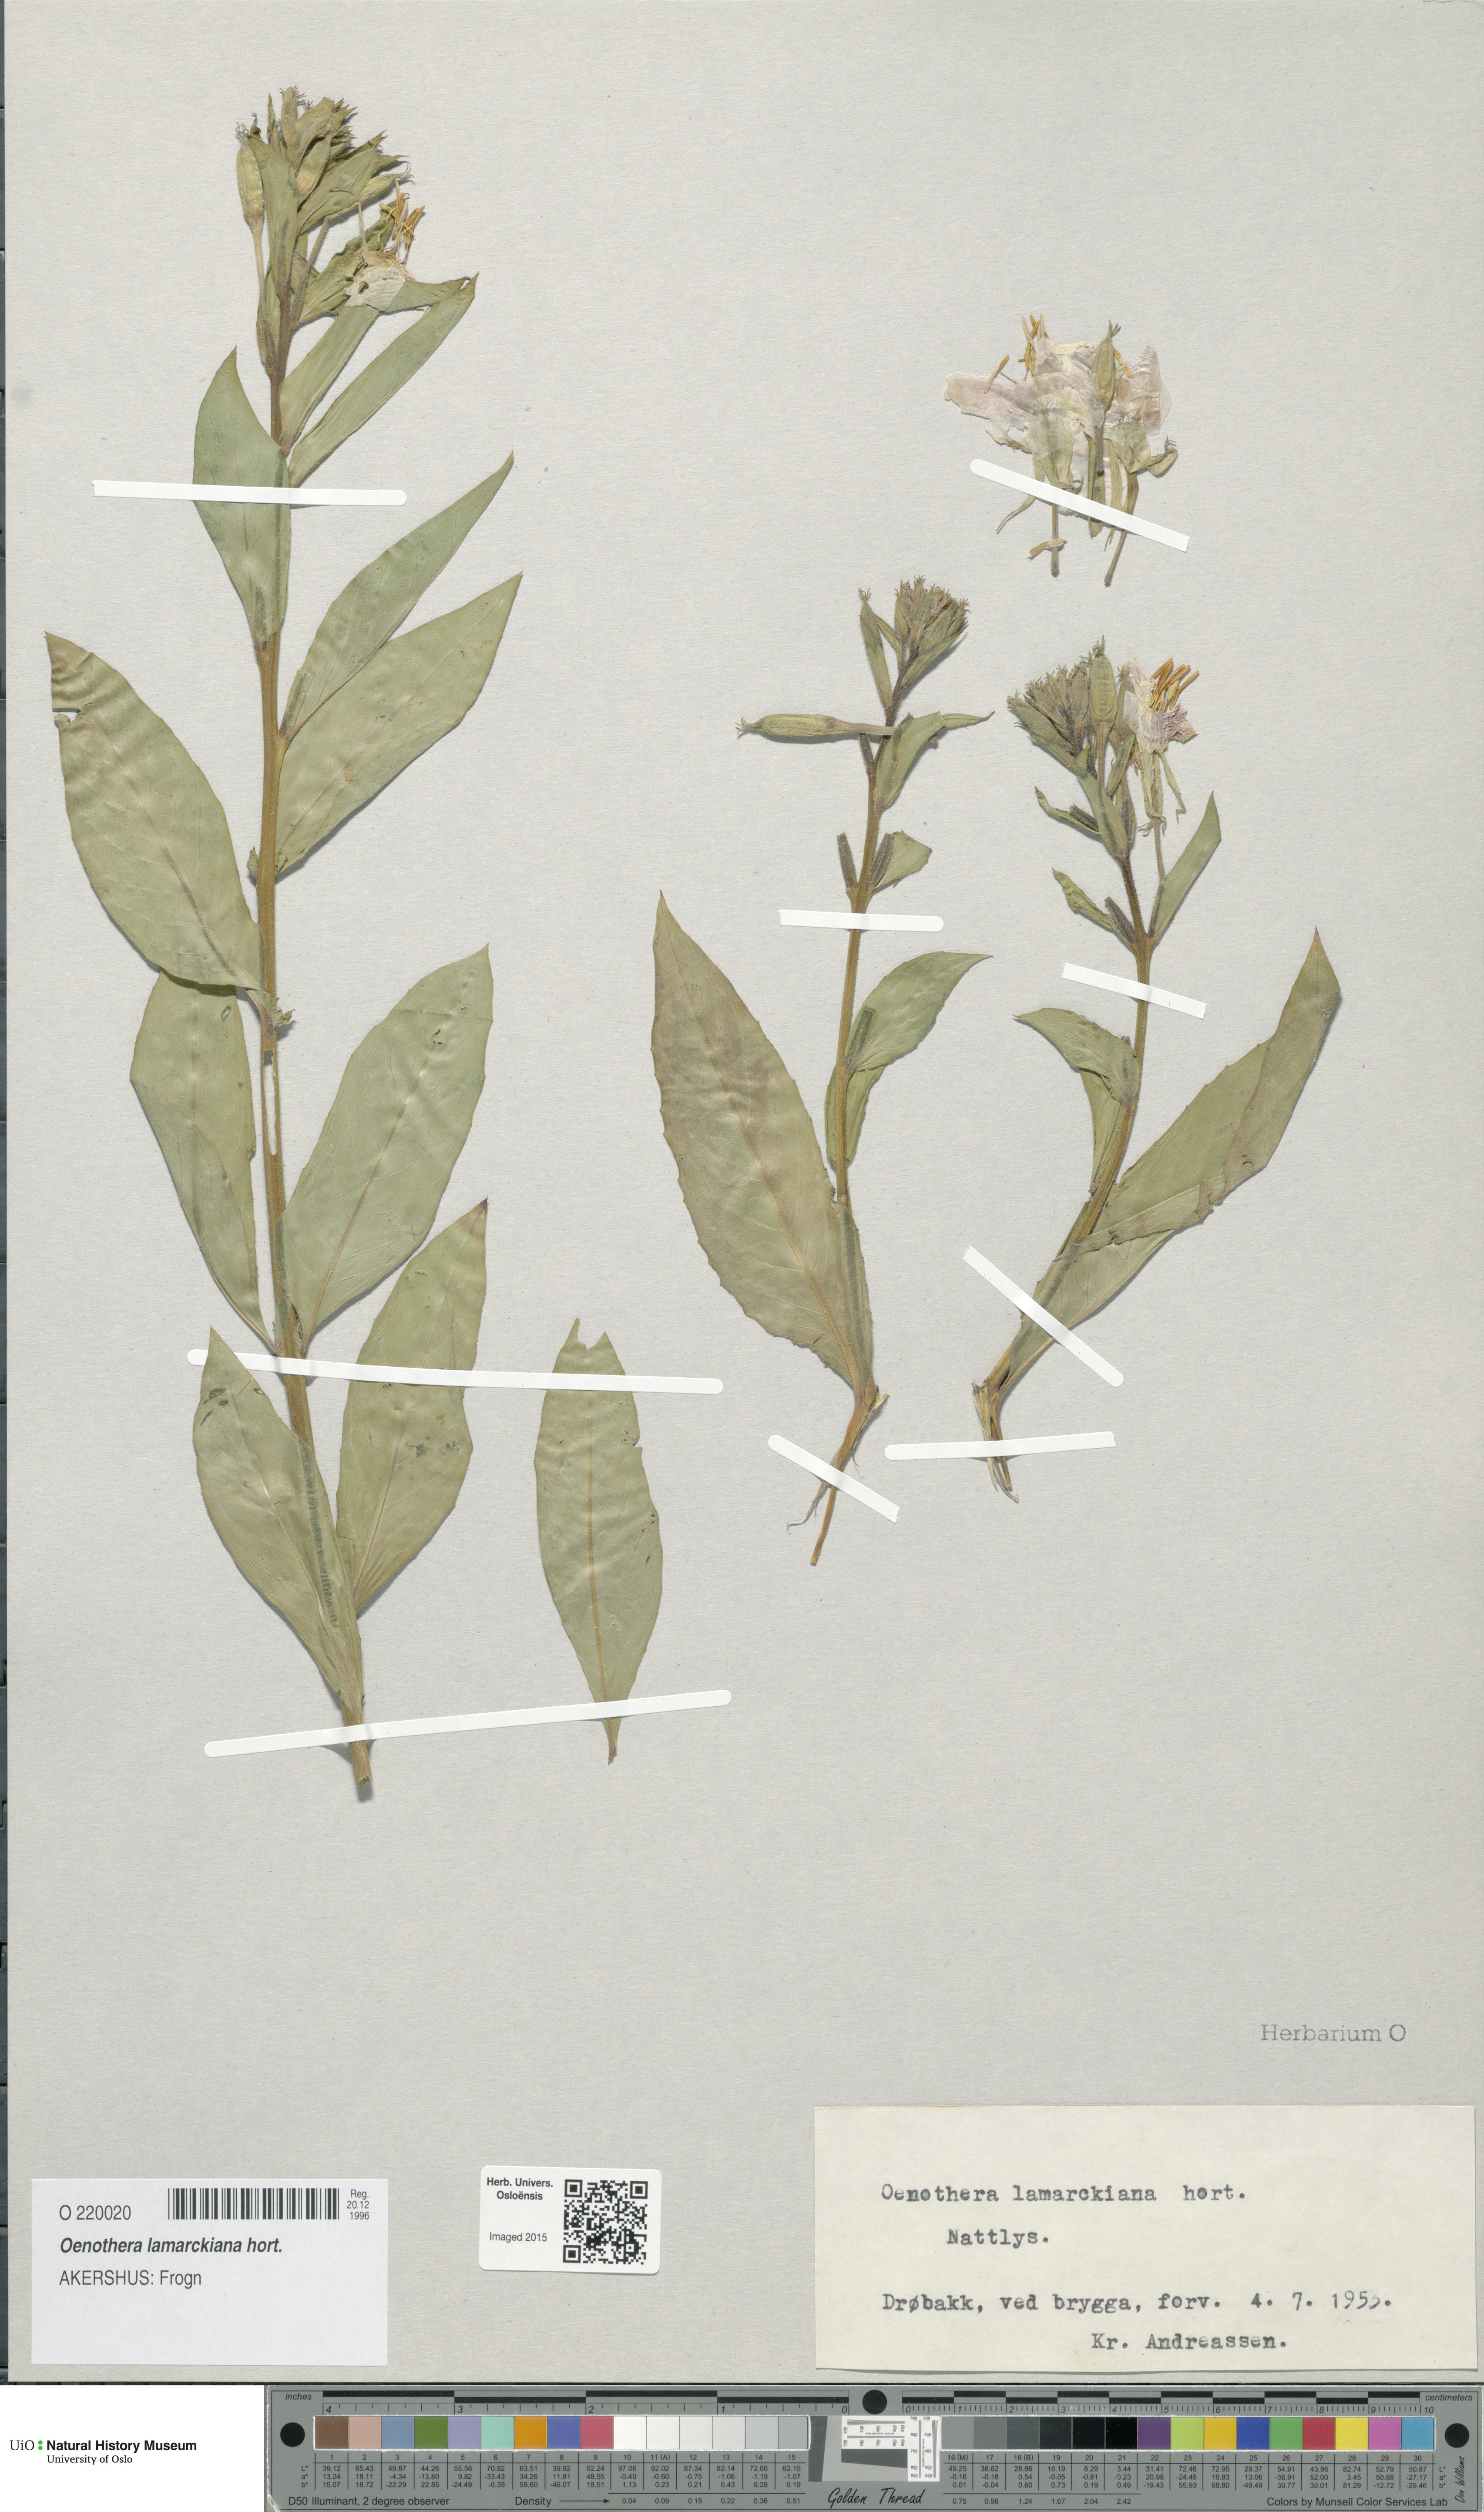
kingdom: Plantae
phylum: Tracheophyta
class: Magnoliopsida
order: Myrtales
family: Onagraceae
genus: Oenothera
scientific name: Oenothera grandiflora
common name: Large-flowered evening-primrose
